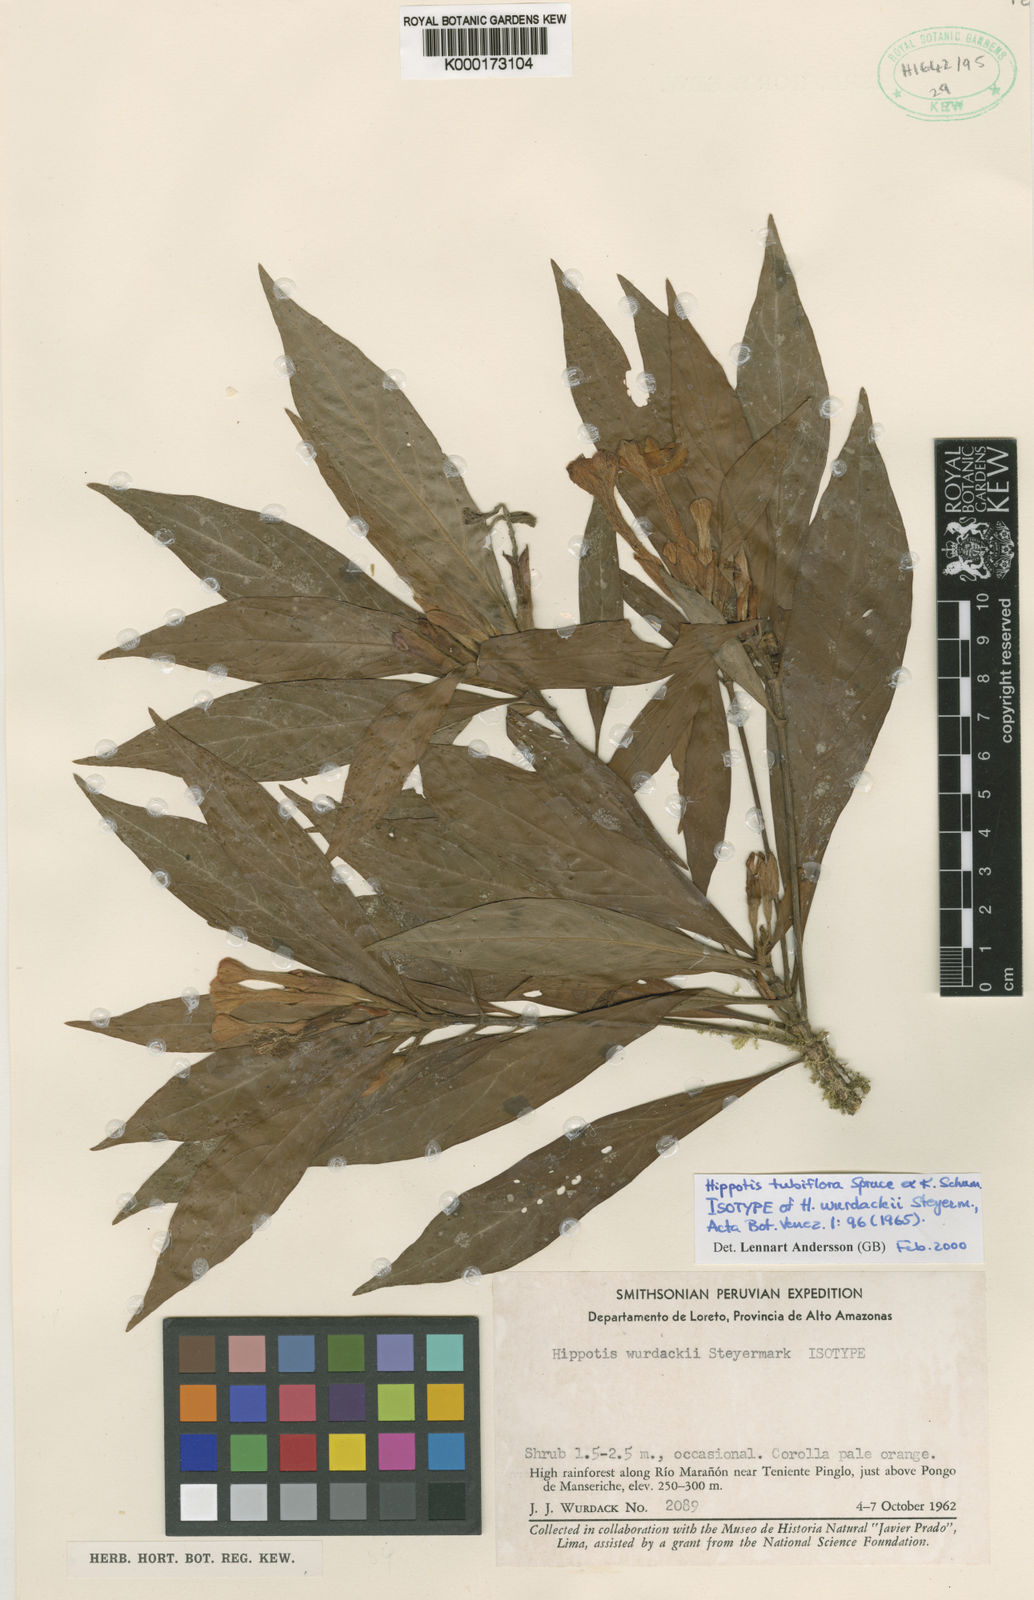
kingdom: Plantae
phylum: Tracheophyta
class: Magnoliopsida
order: Gentianales
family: Rubiaceae
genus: Hippotis
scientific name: Hippotis tubiflora
